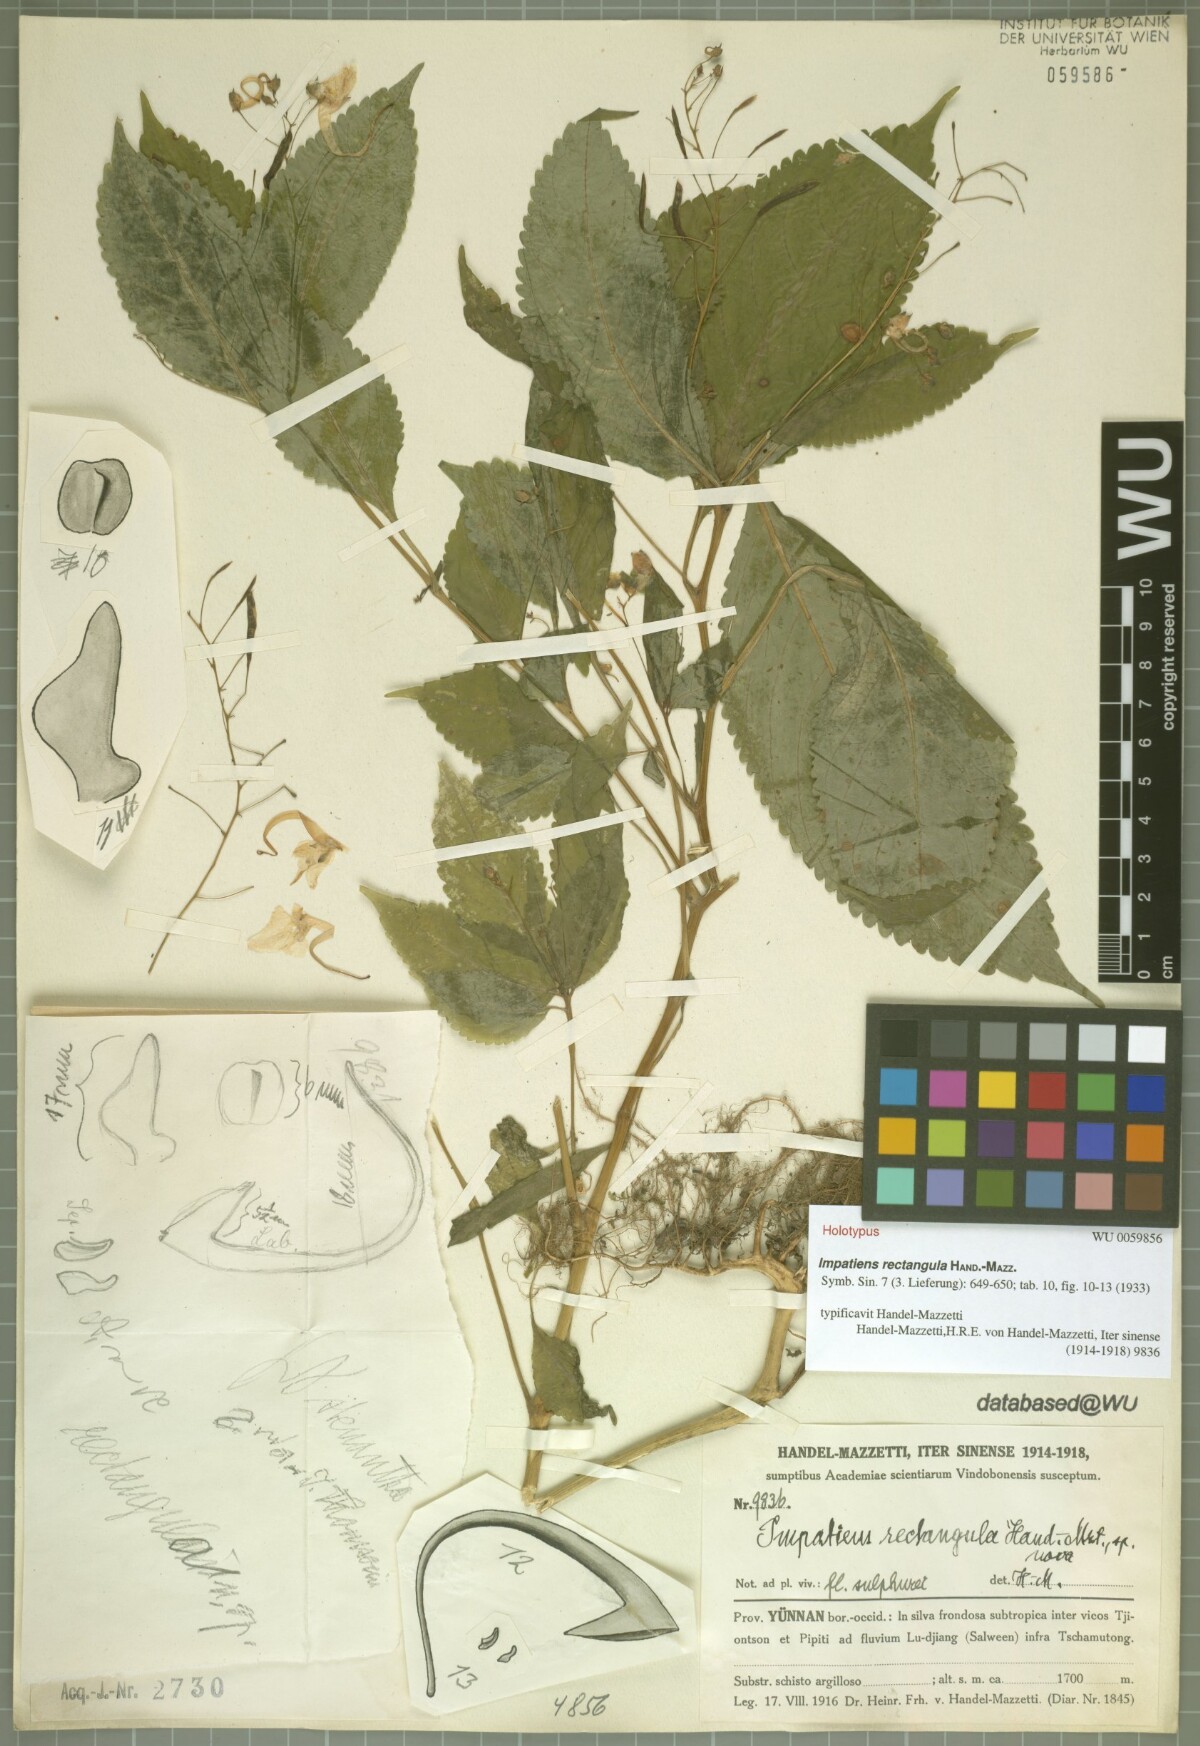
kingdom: Plantae
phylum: Tracheophyta
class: Magnoliopsida
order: Ericales
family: Balsaminaceae
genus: Impatiens
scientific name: Impatiens rectangula
